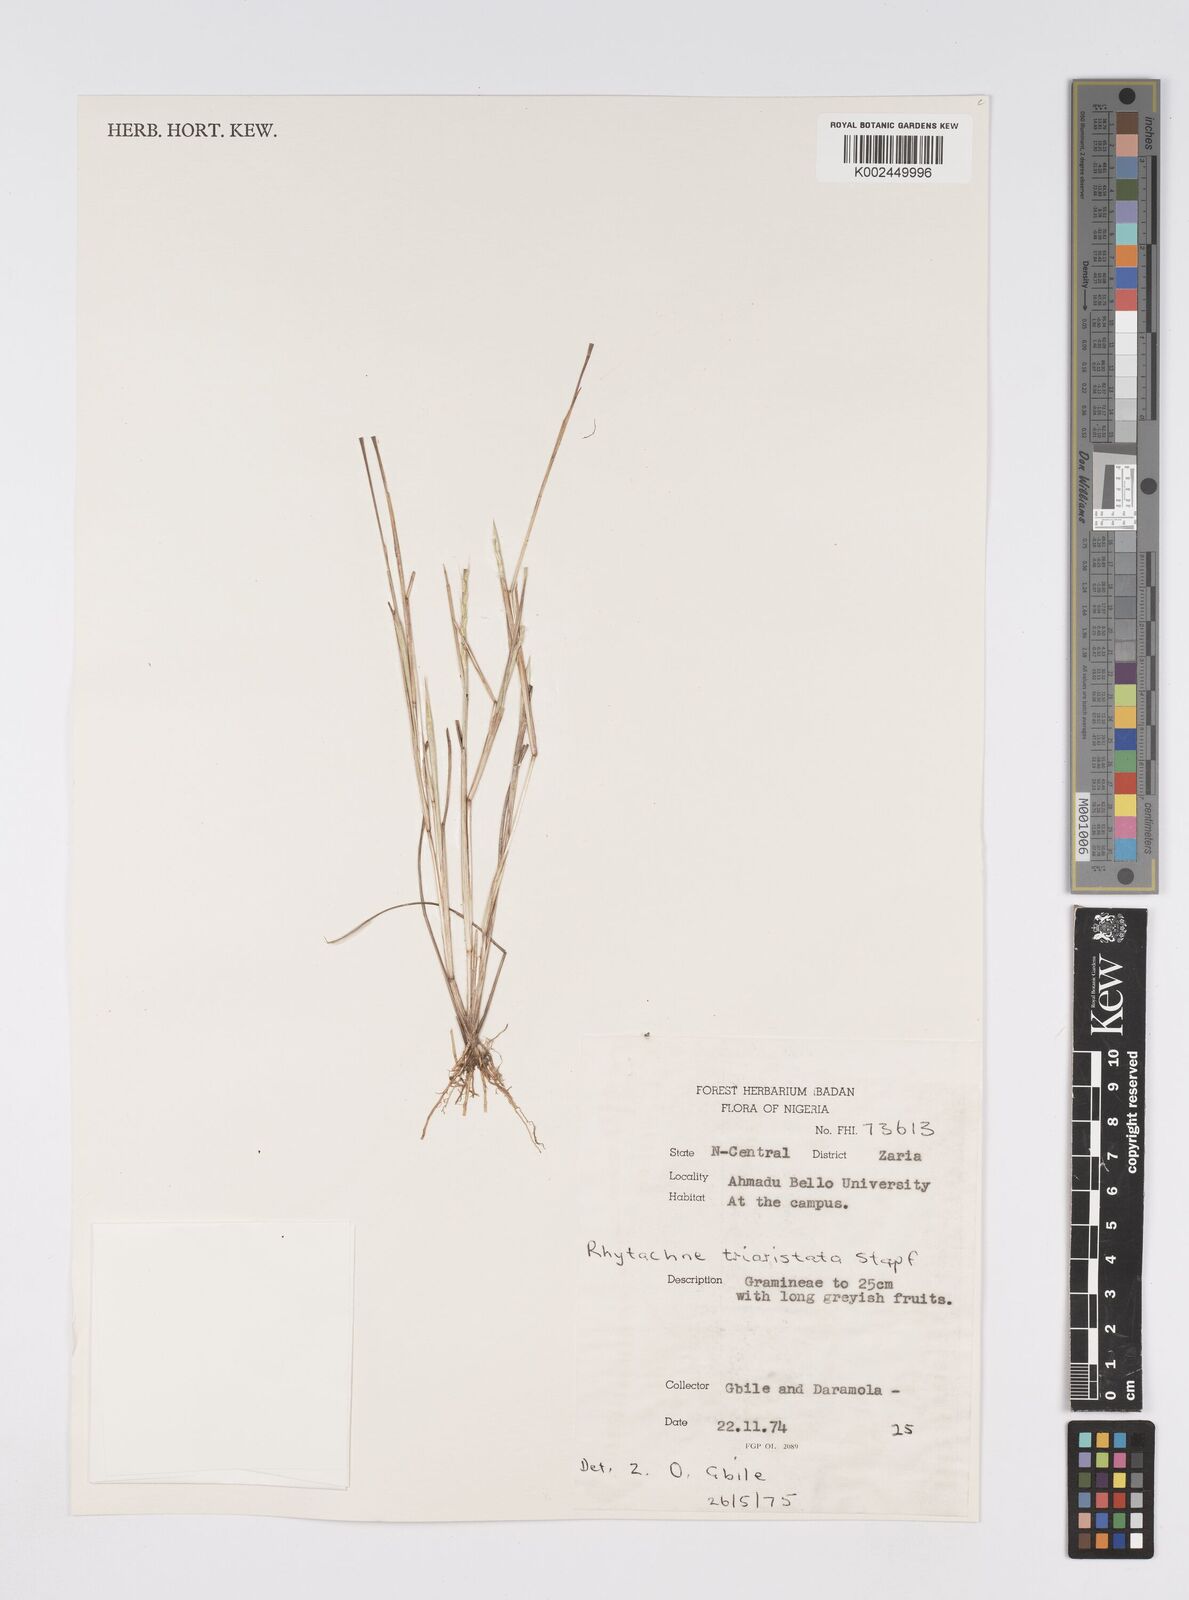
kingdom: Plantae
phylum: Tracheophyta
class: Liliopsida
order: Poales
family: Poaceae
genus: Rhytachne
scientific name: Rhytachne triaristata
